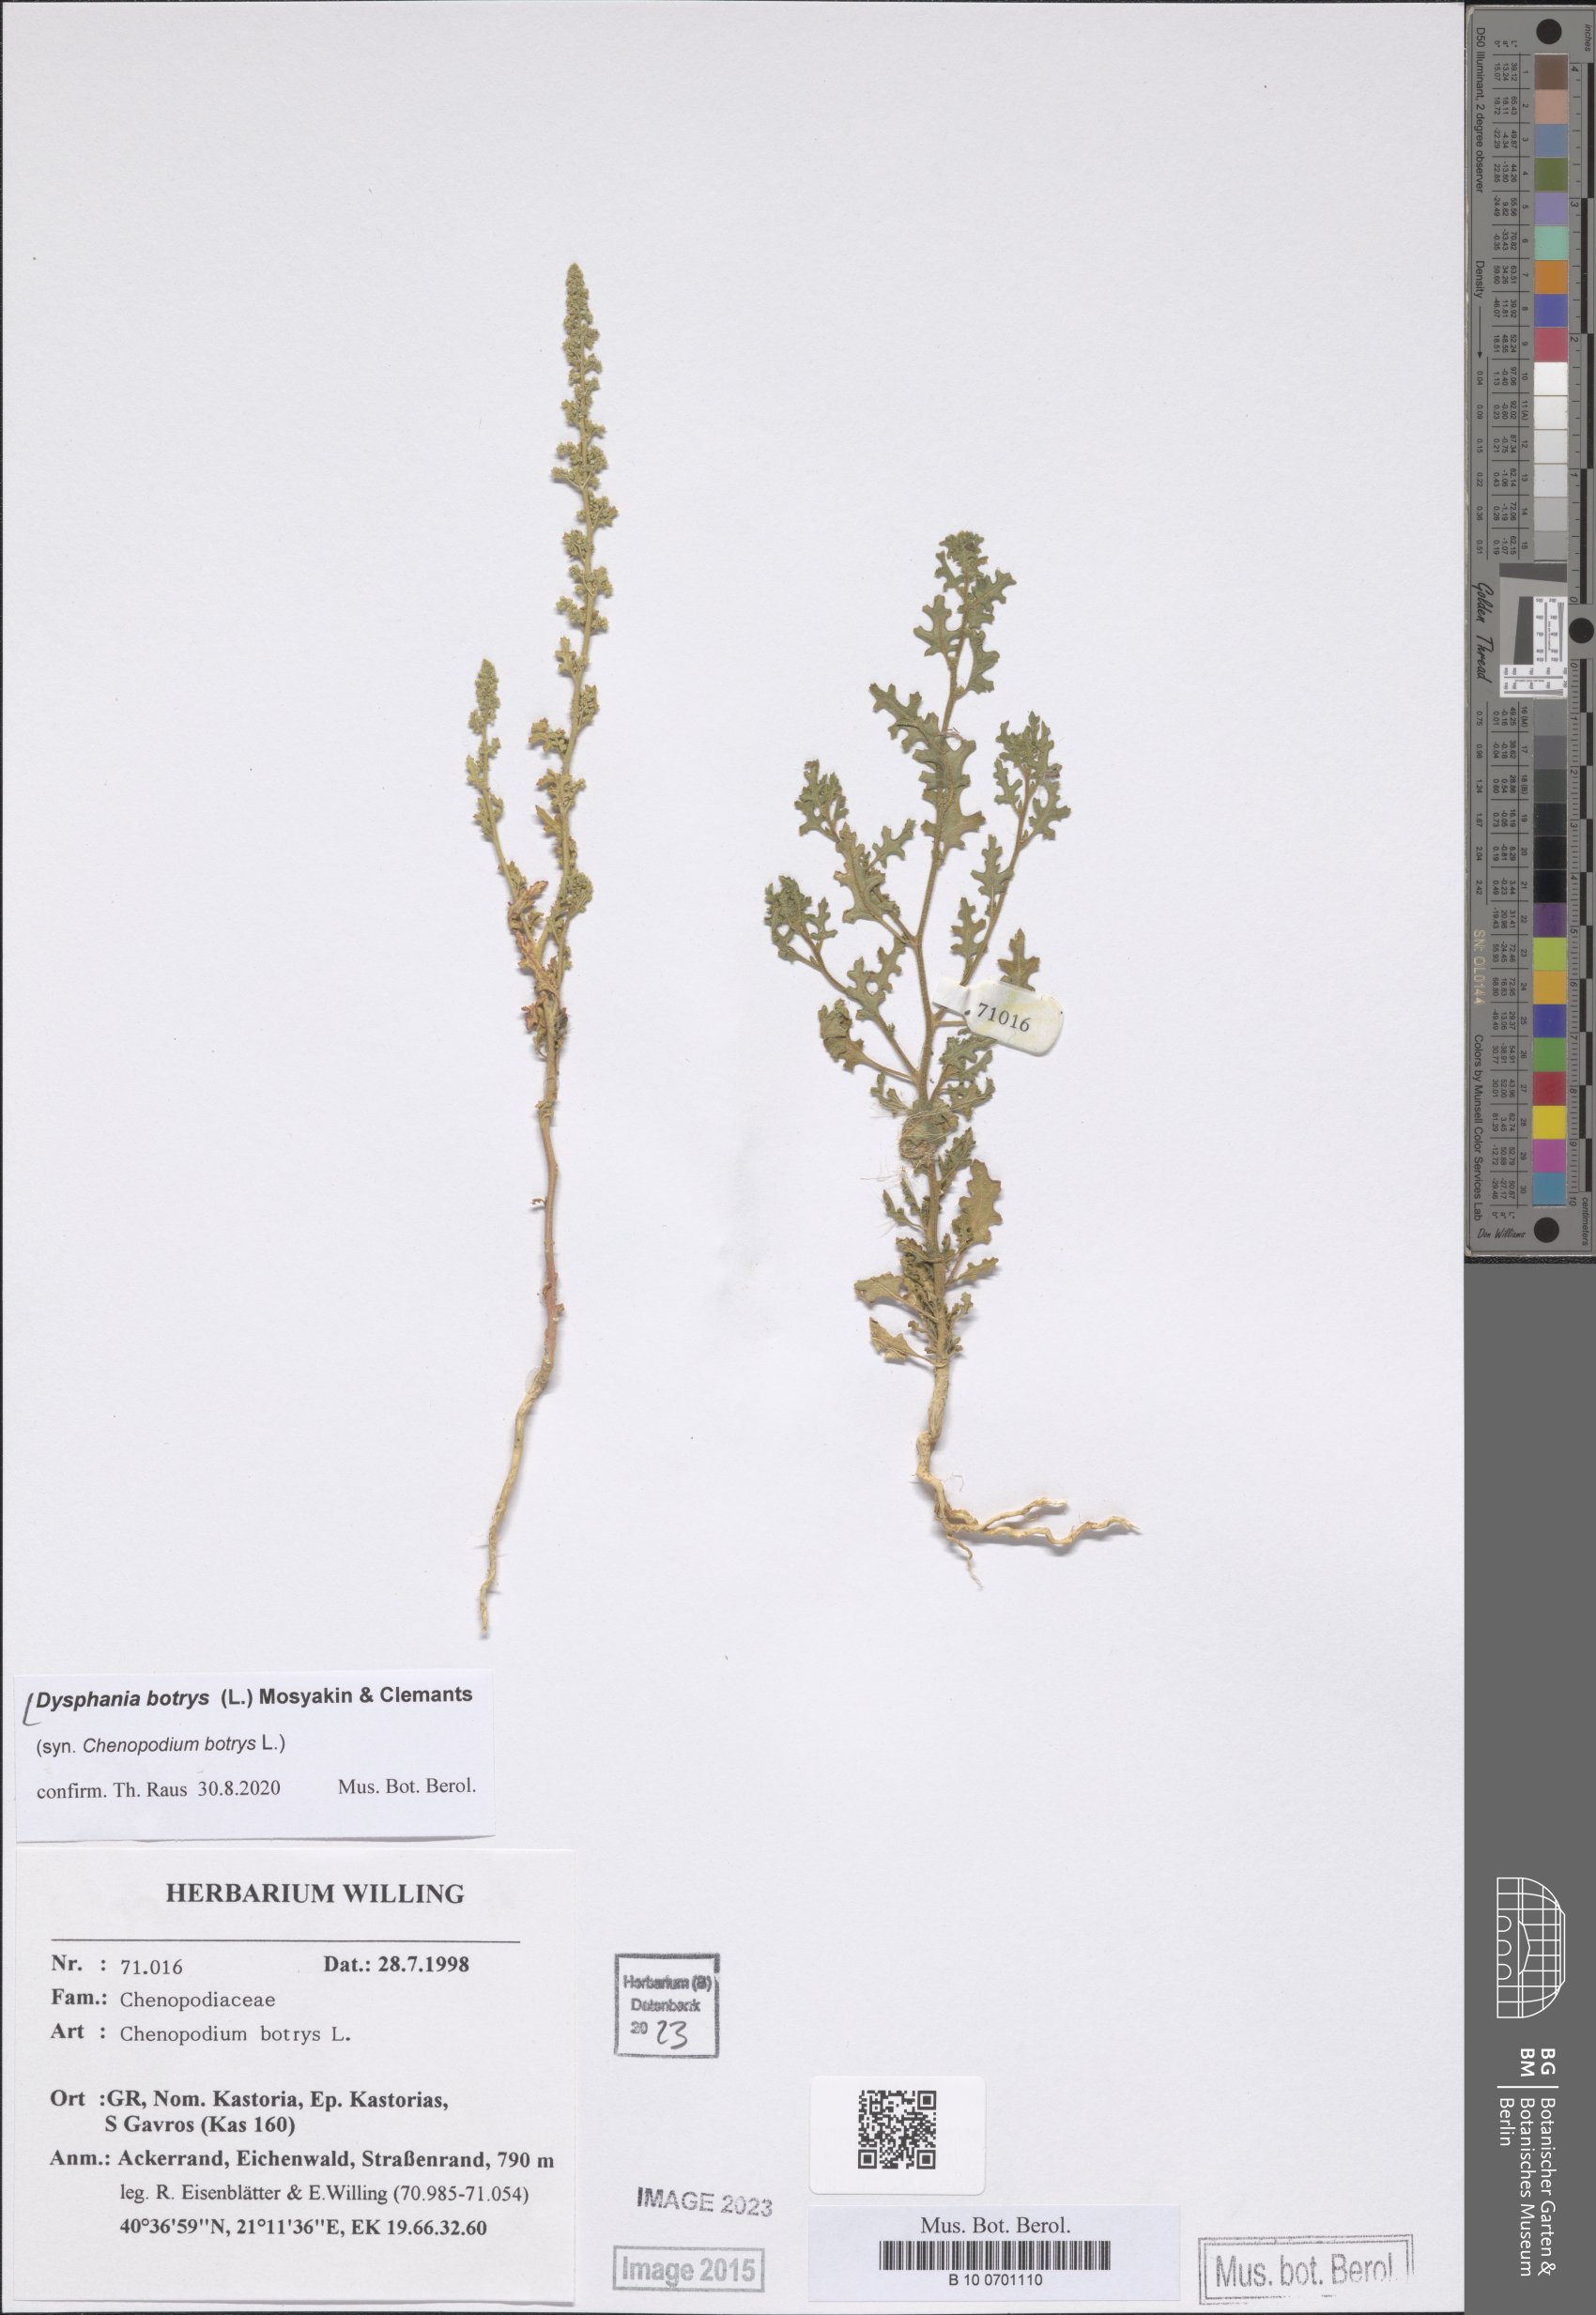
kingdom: Plantae
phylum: Tracheophyta
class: Magnoliopsida
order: Caryophyllales
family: Amaranthaceae
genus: Dysphania
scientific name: Dysphania botrys
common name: Feather-geranium
